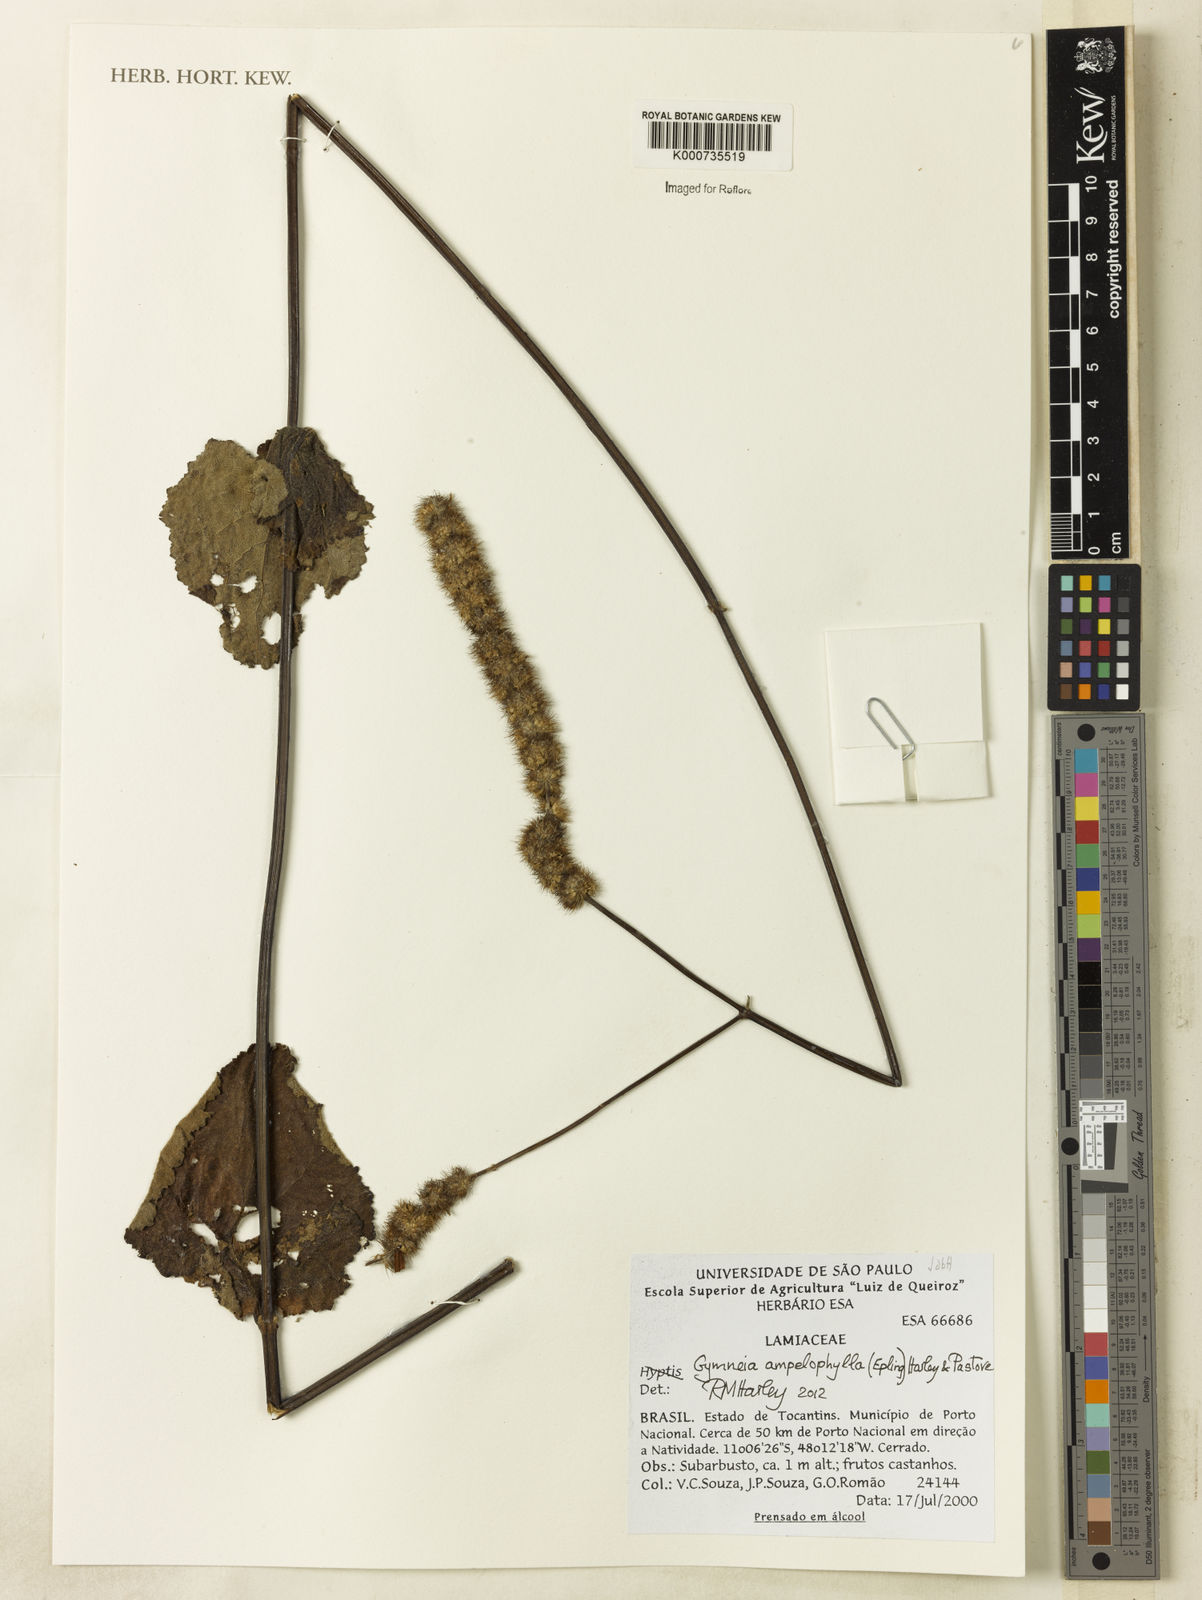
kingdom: Plantae
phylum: Tracheophyta
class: Magnoliopsida
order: Lamiales
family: Lamiaceae
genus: Gymneia
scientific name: Gymneia ampelophylla
